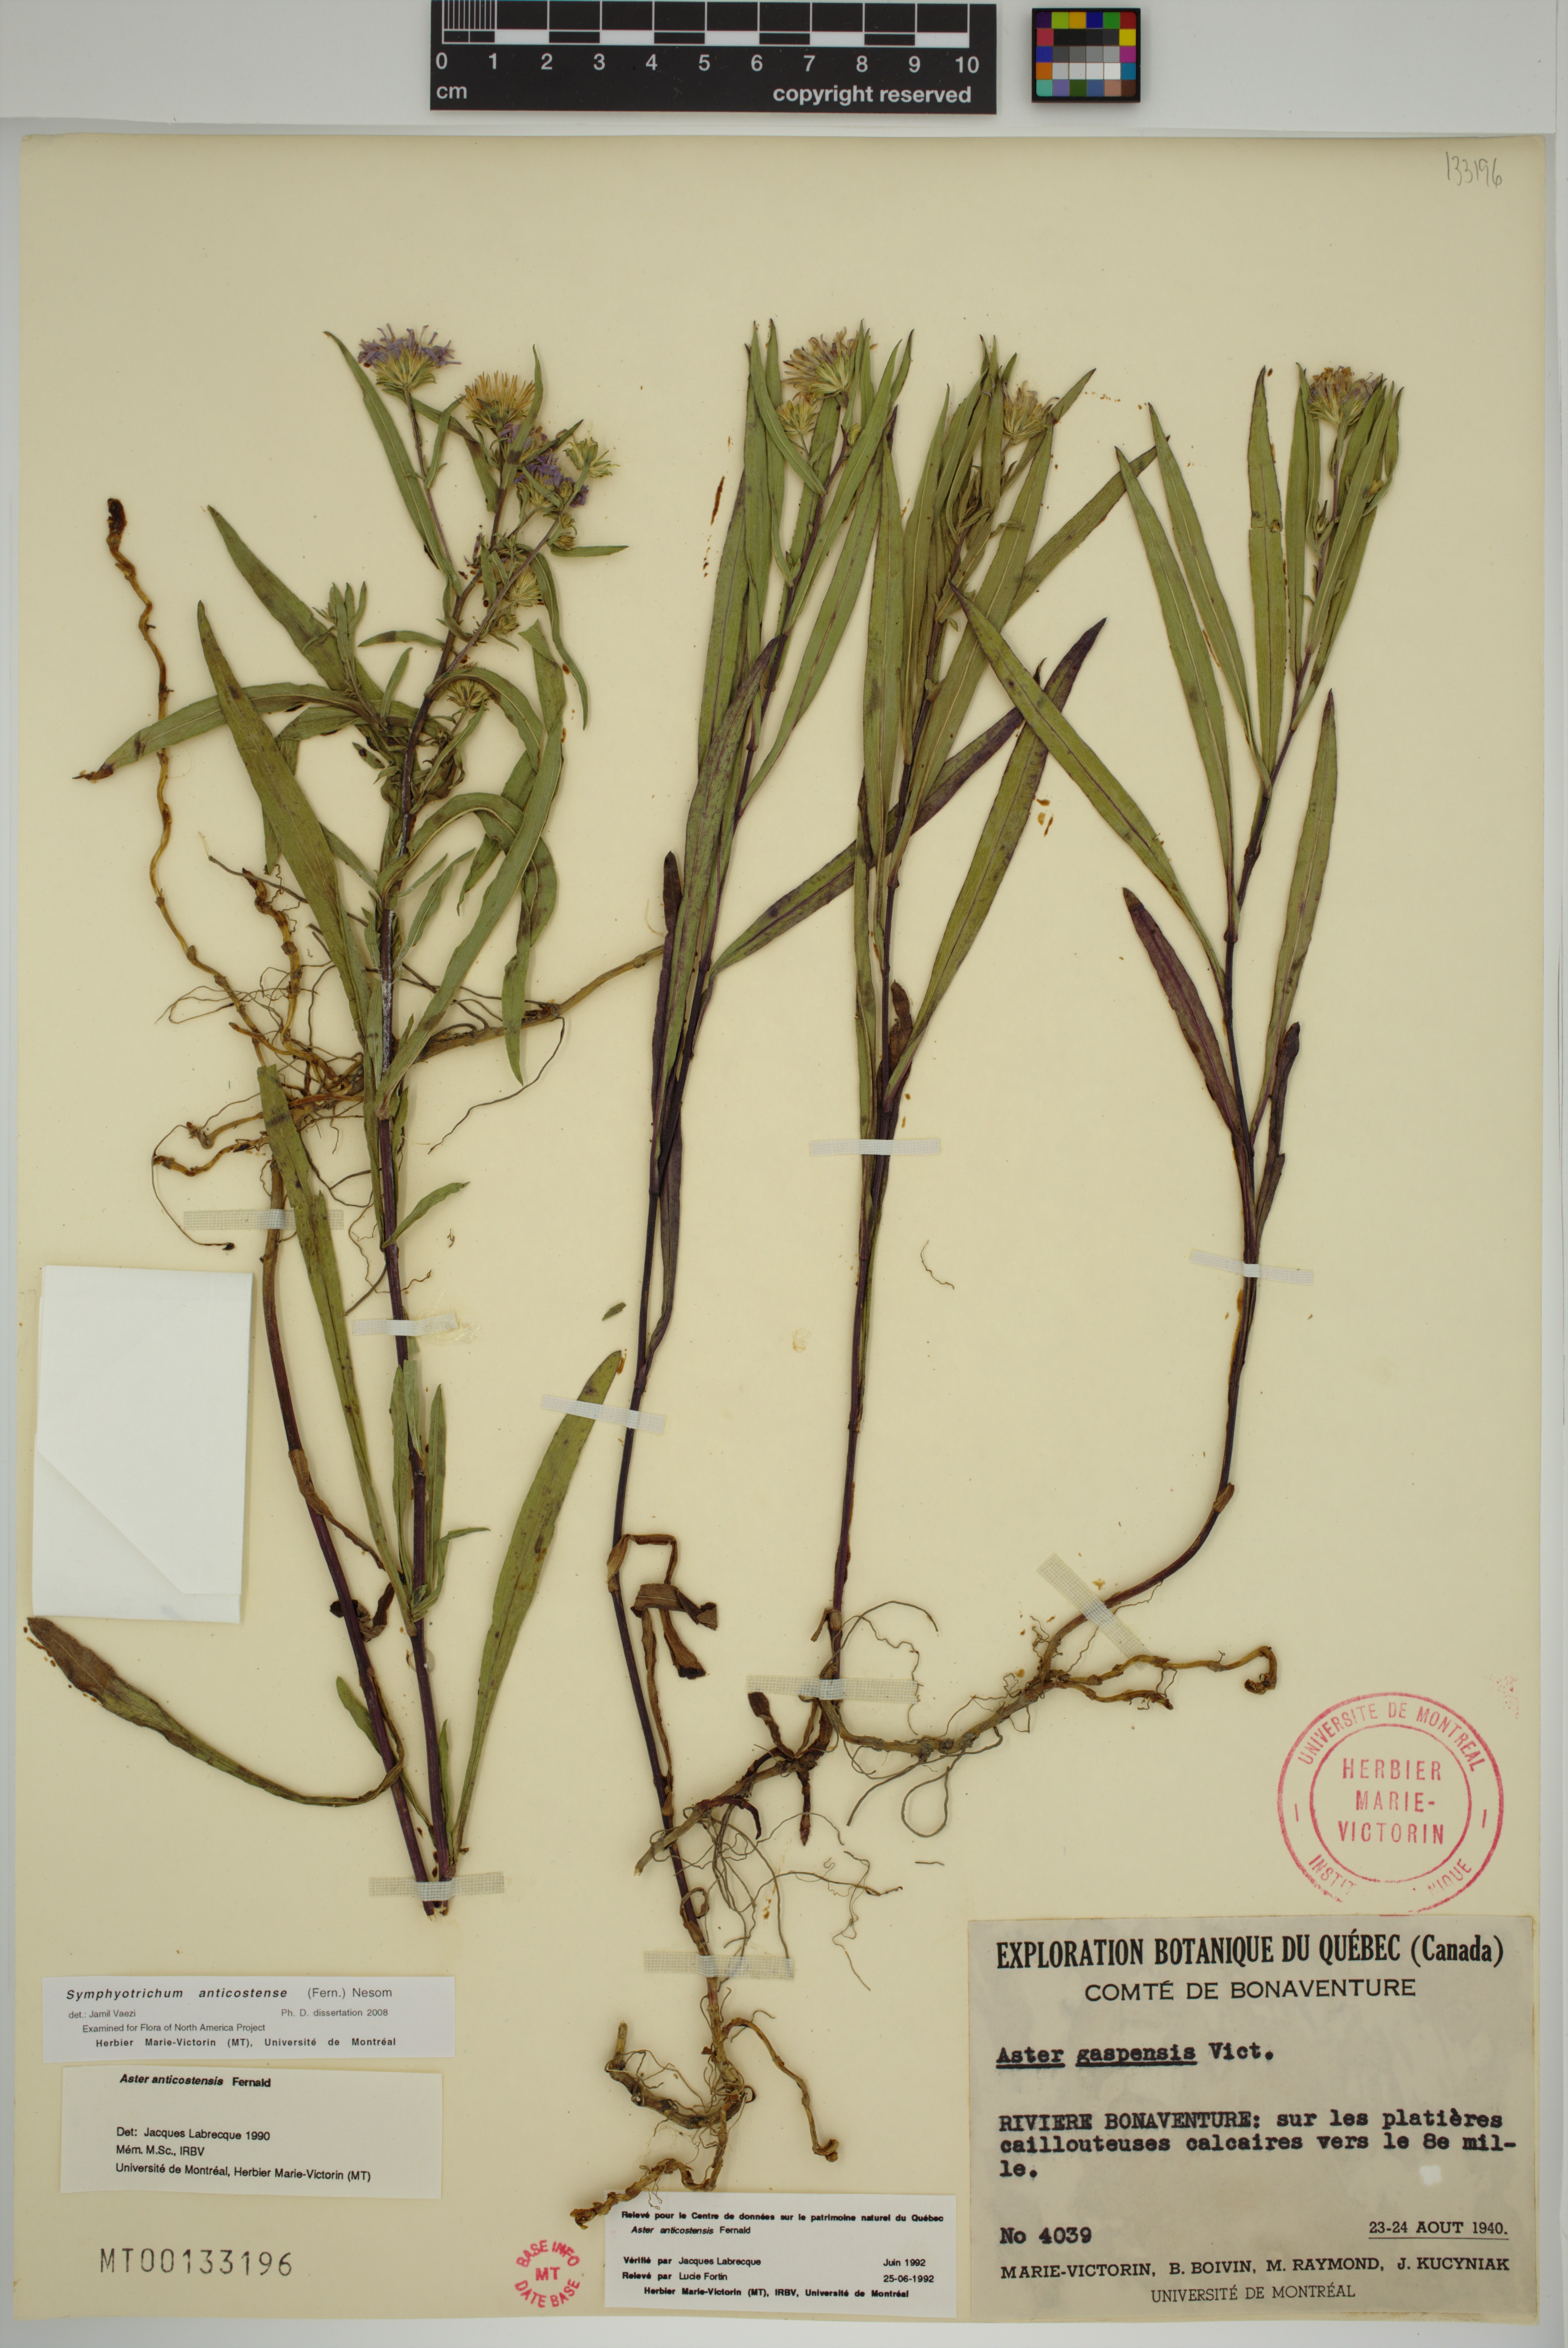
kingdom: Plantae
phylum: Tracheophyta
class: Magnoliopsida
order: Asterales
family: Asteraceae
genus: Symphyotrichum
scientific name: Symphyotrichum anticostense
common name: Anticosti island aster
